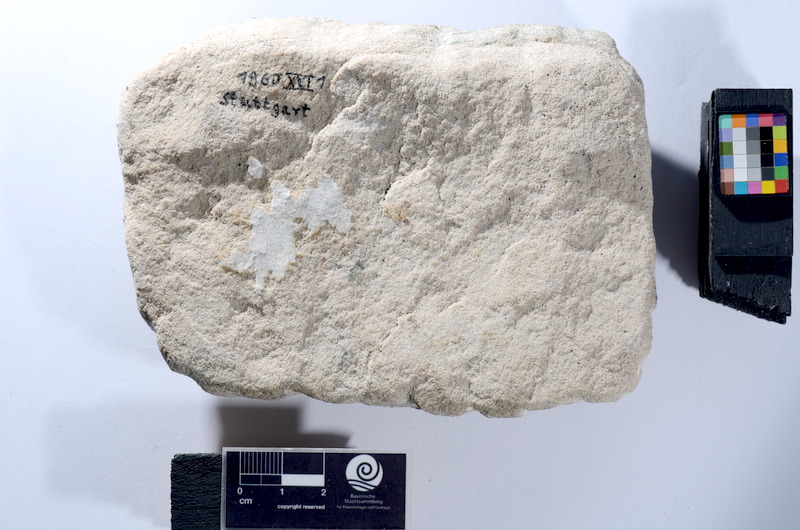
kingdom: Animalia
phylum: Chordata
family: Semionotidae
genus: Semionotus
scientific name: Semionotus kapffi
